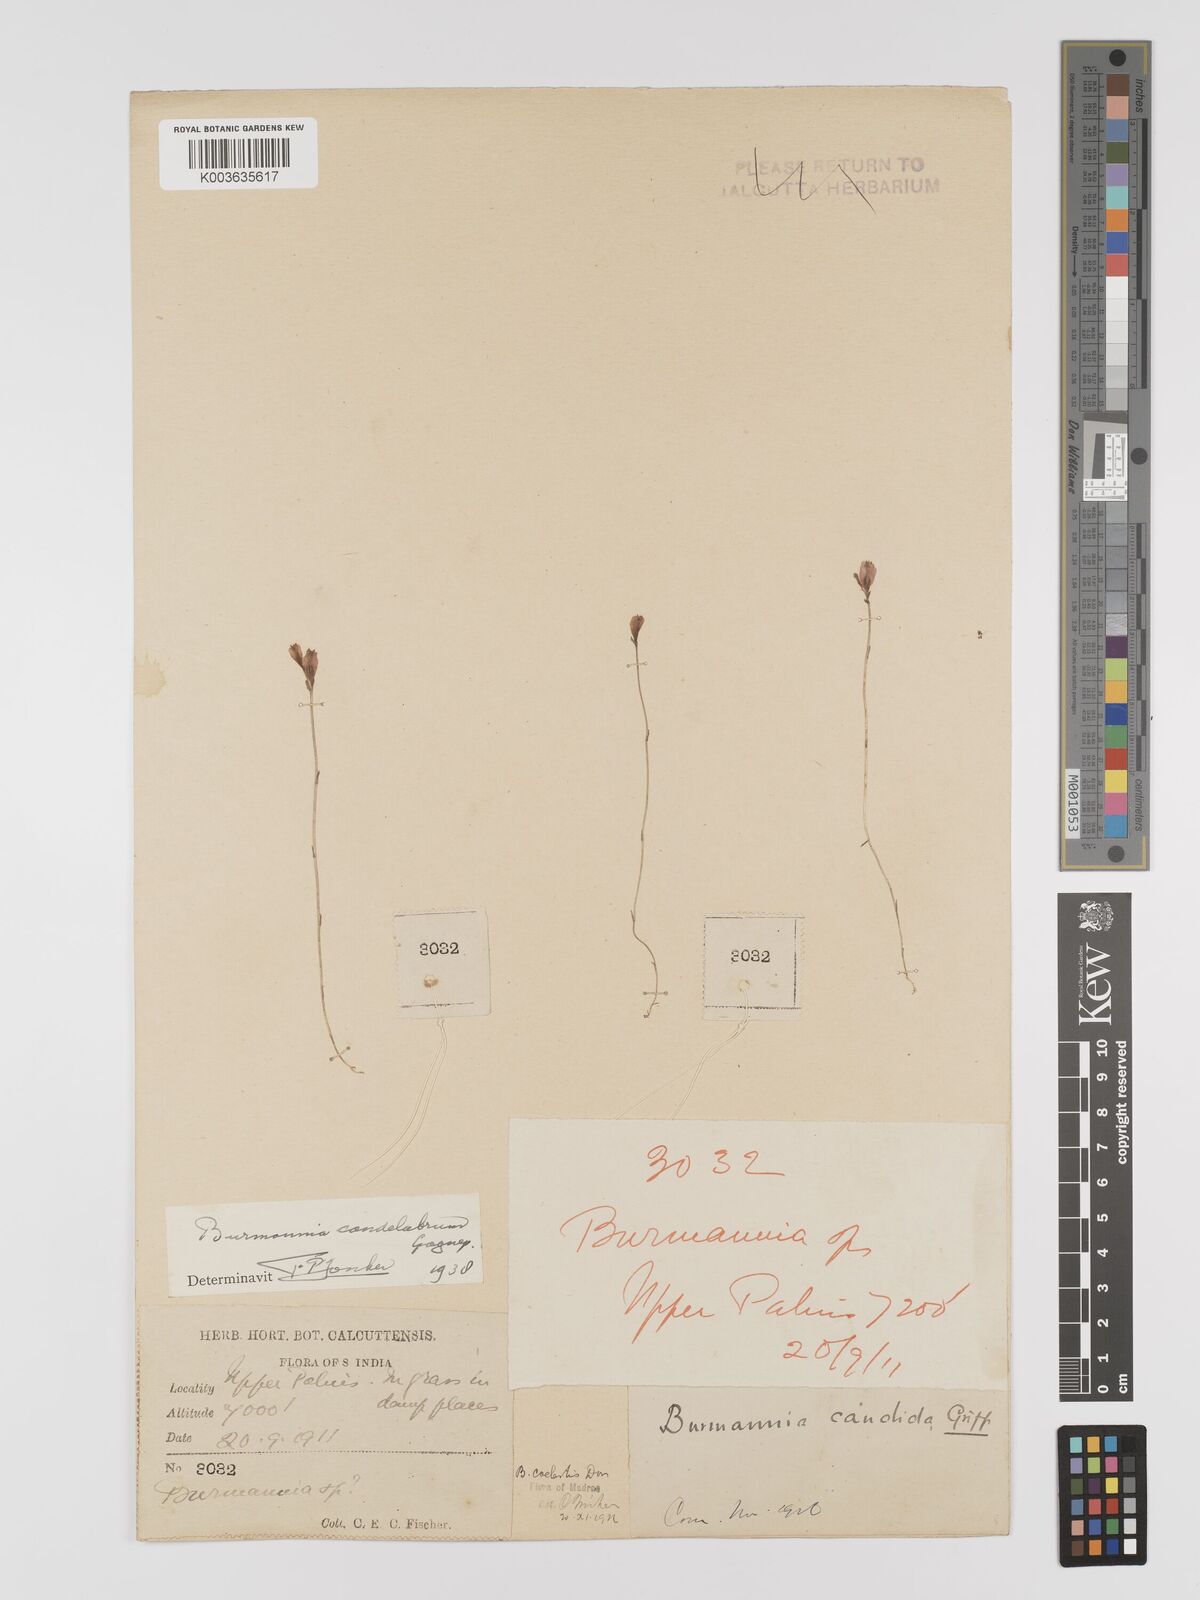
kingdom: Plantae
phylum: Tracheophyta
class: Liliopsida
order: Dioscoreales
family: Burmanniaceae
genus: Burmannia
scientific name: Burmannia candelabrum
